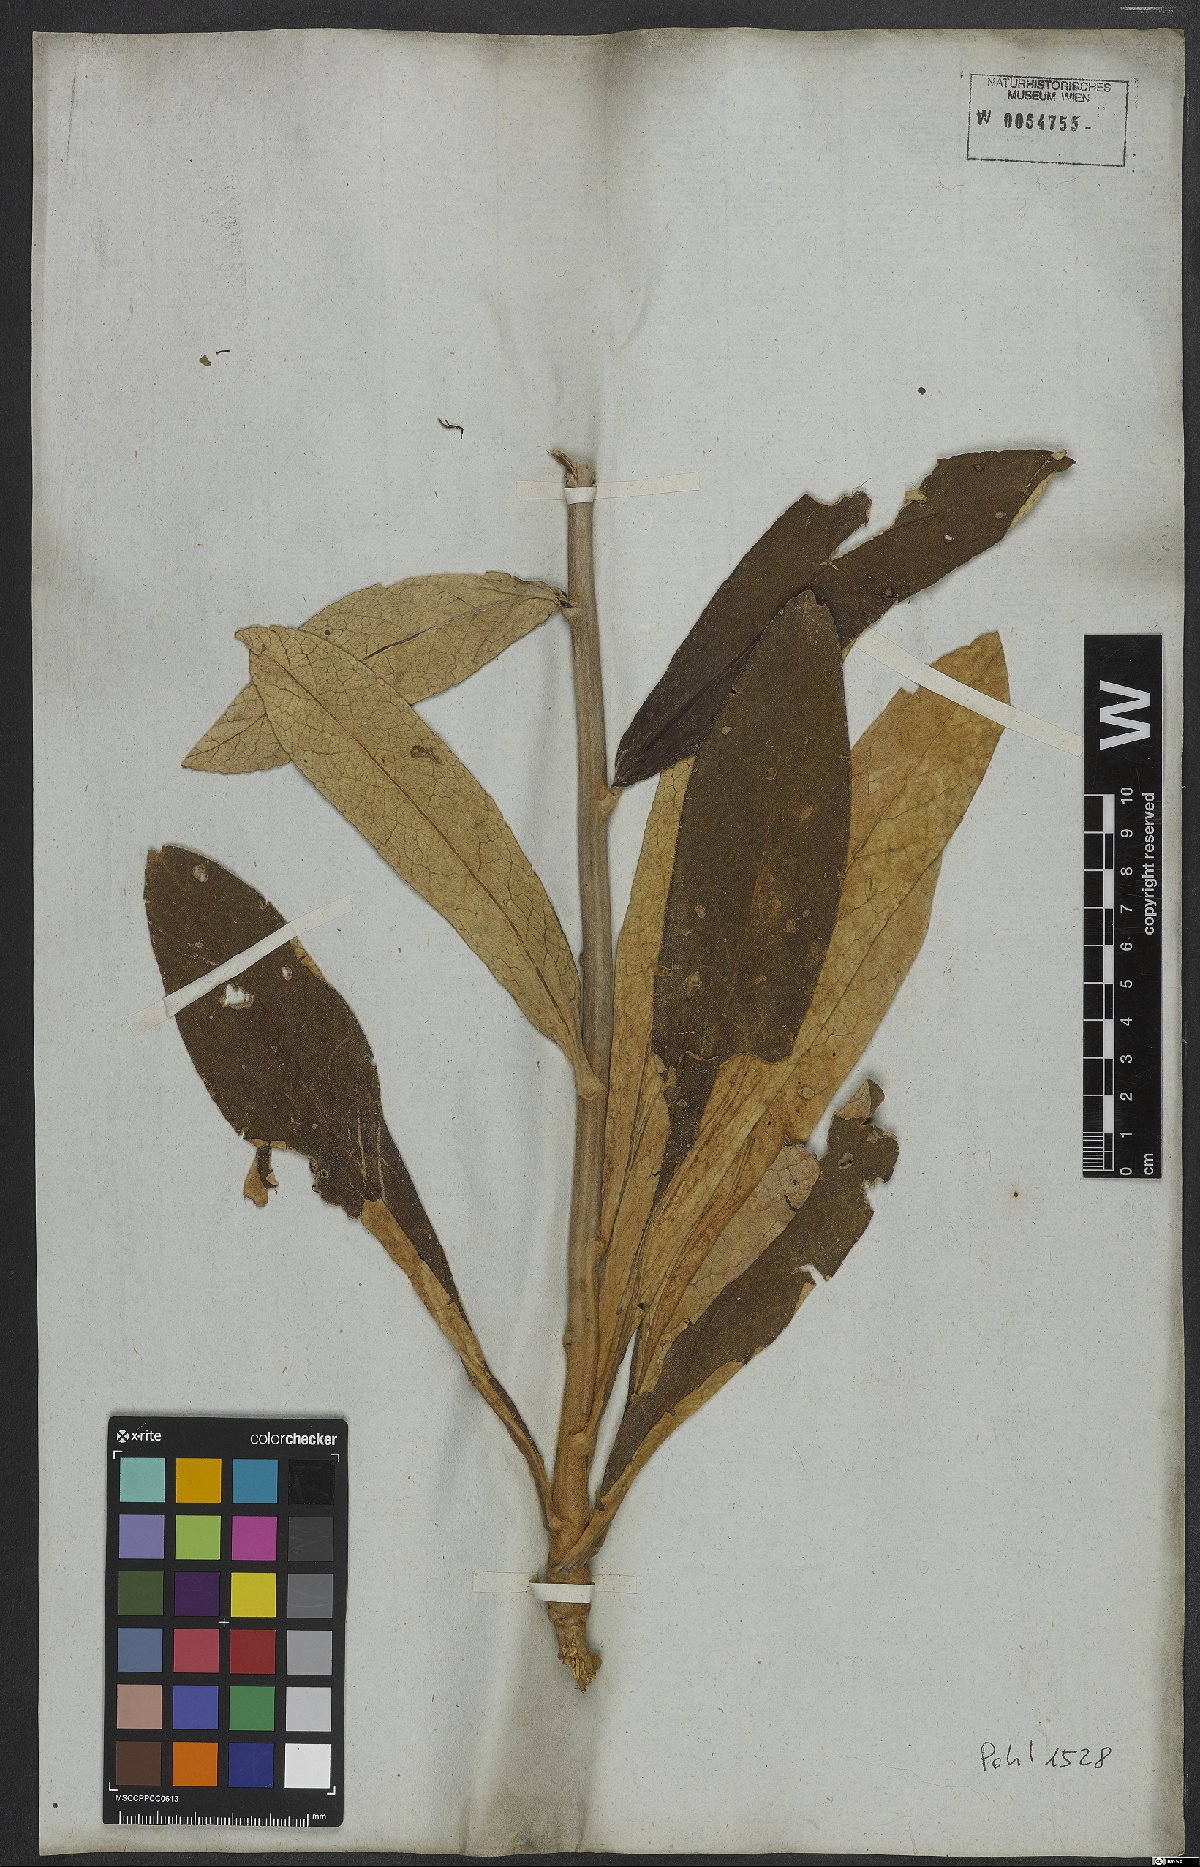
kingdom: Plantae
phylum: Tracheophyta
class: Magnoliopsida
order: Asterales
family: Asteraceae
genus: Vernonia
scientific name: Vernonia
